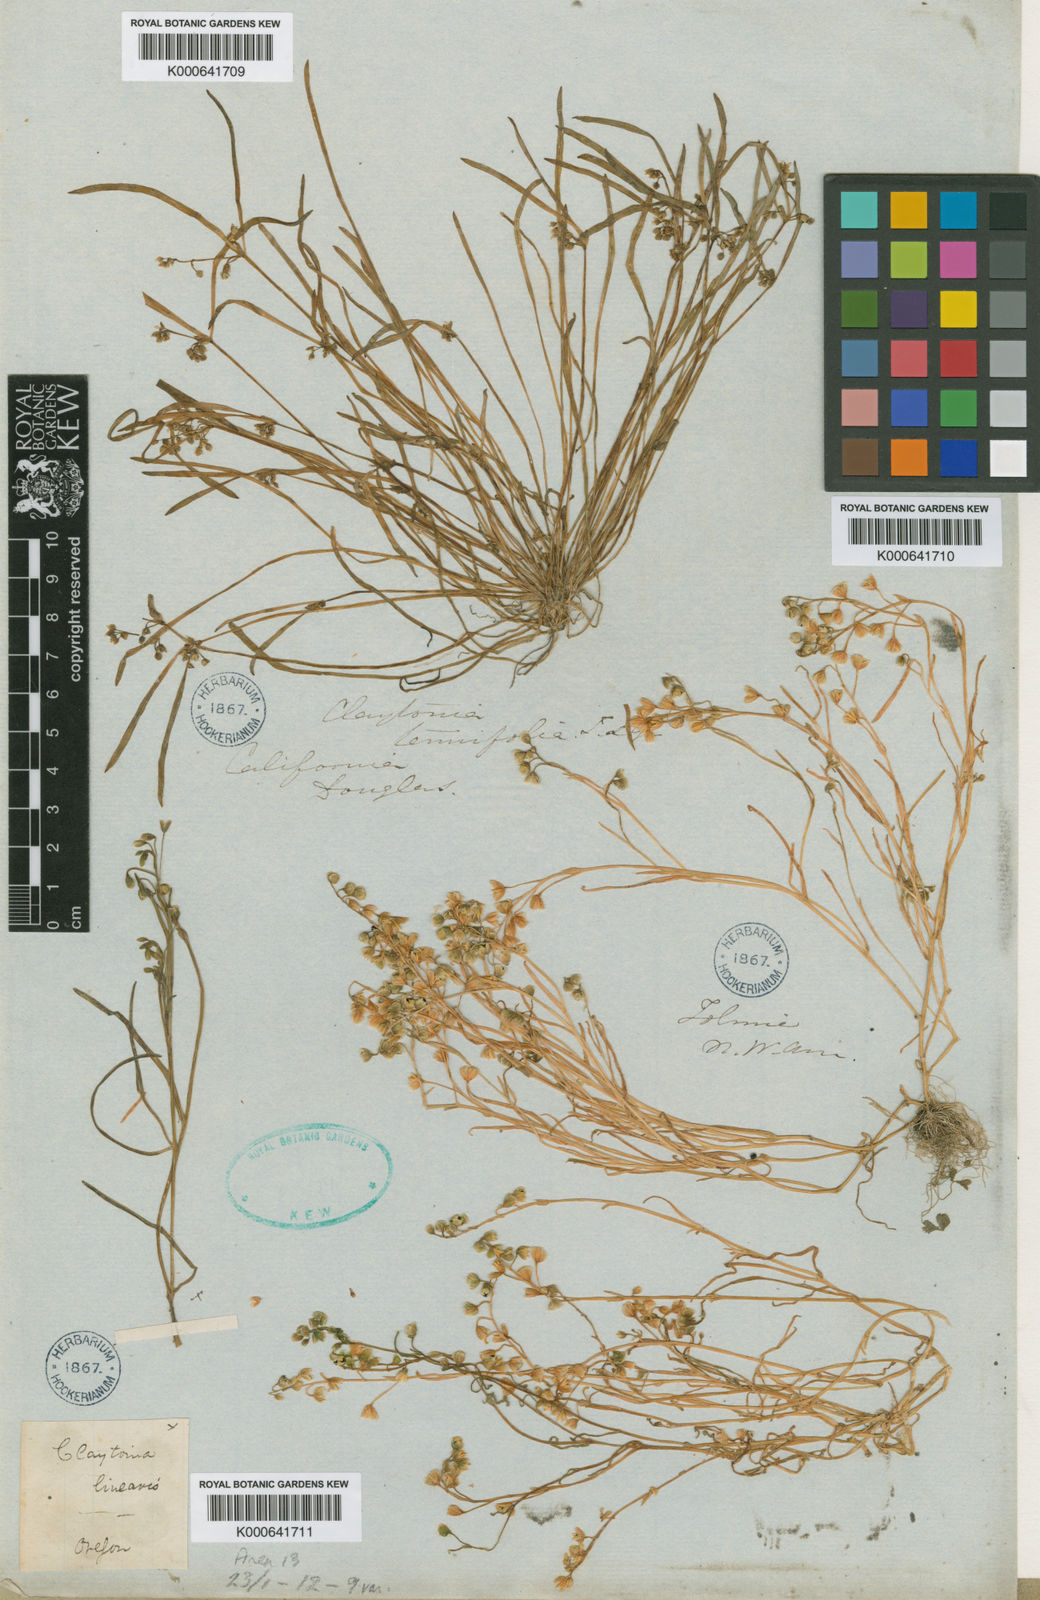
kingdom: Plantae
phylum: Tracheophyta
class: Magnoliopsida
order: Caryophyllales
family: Montiaceae
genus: Claytonia
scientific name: Claytonia exigua
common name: Pale spring beauty
